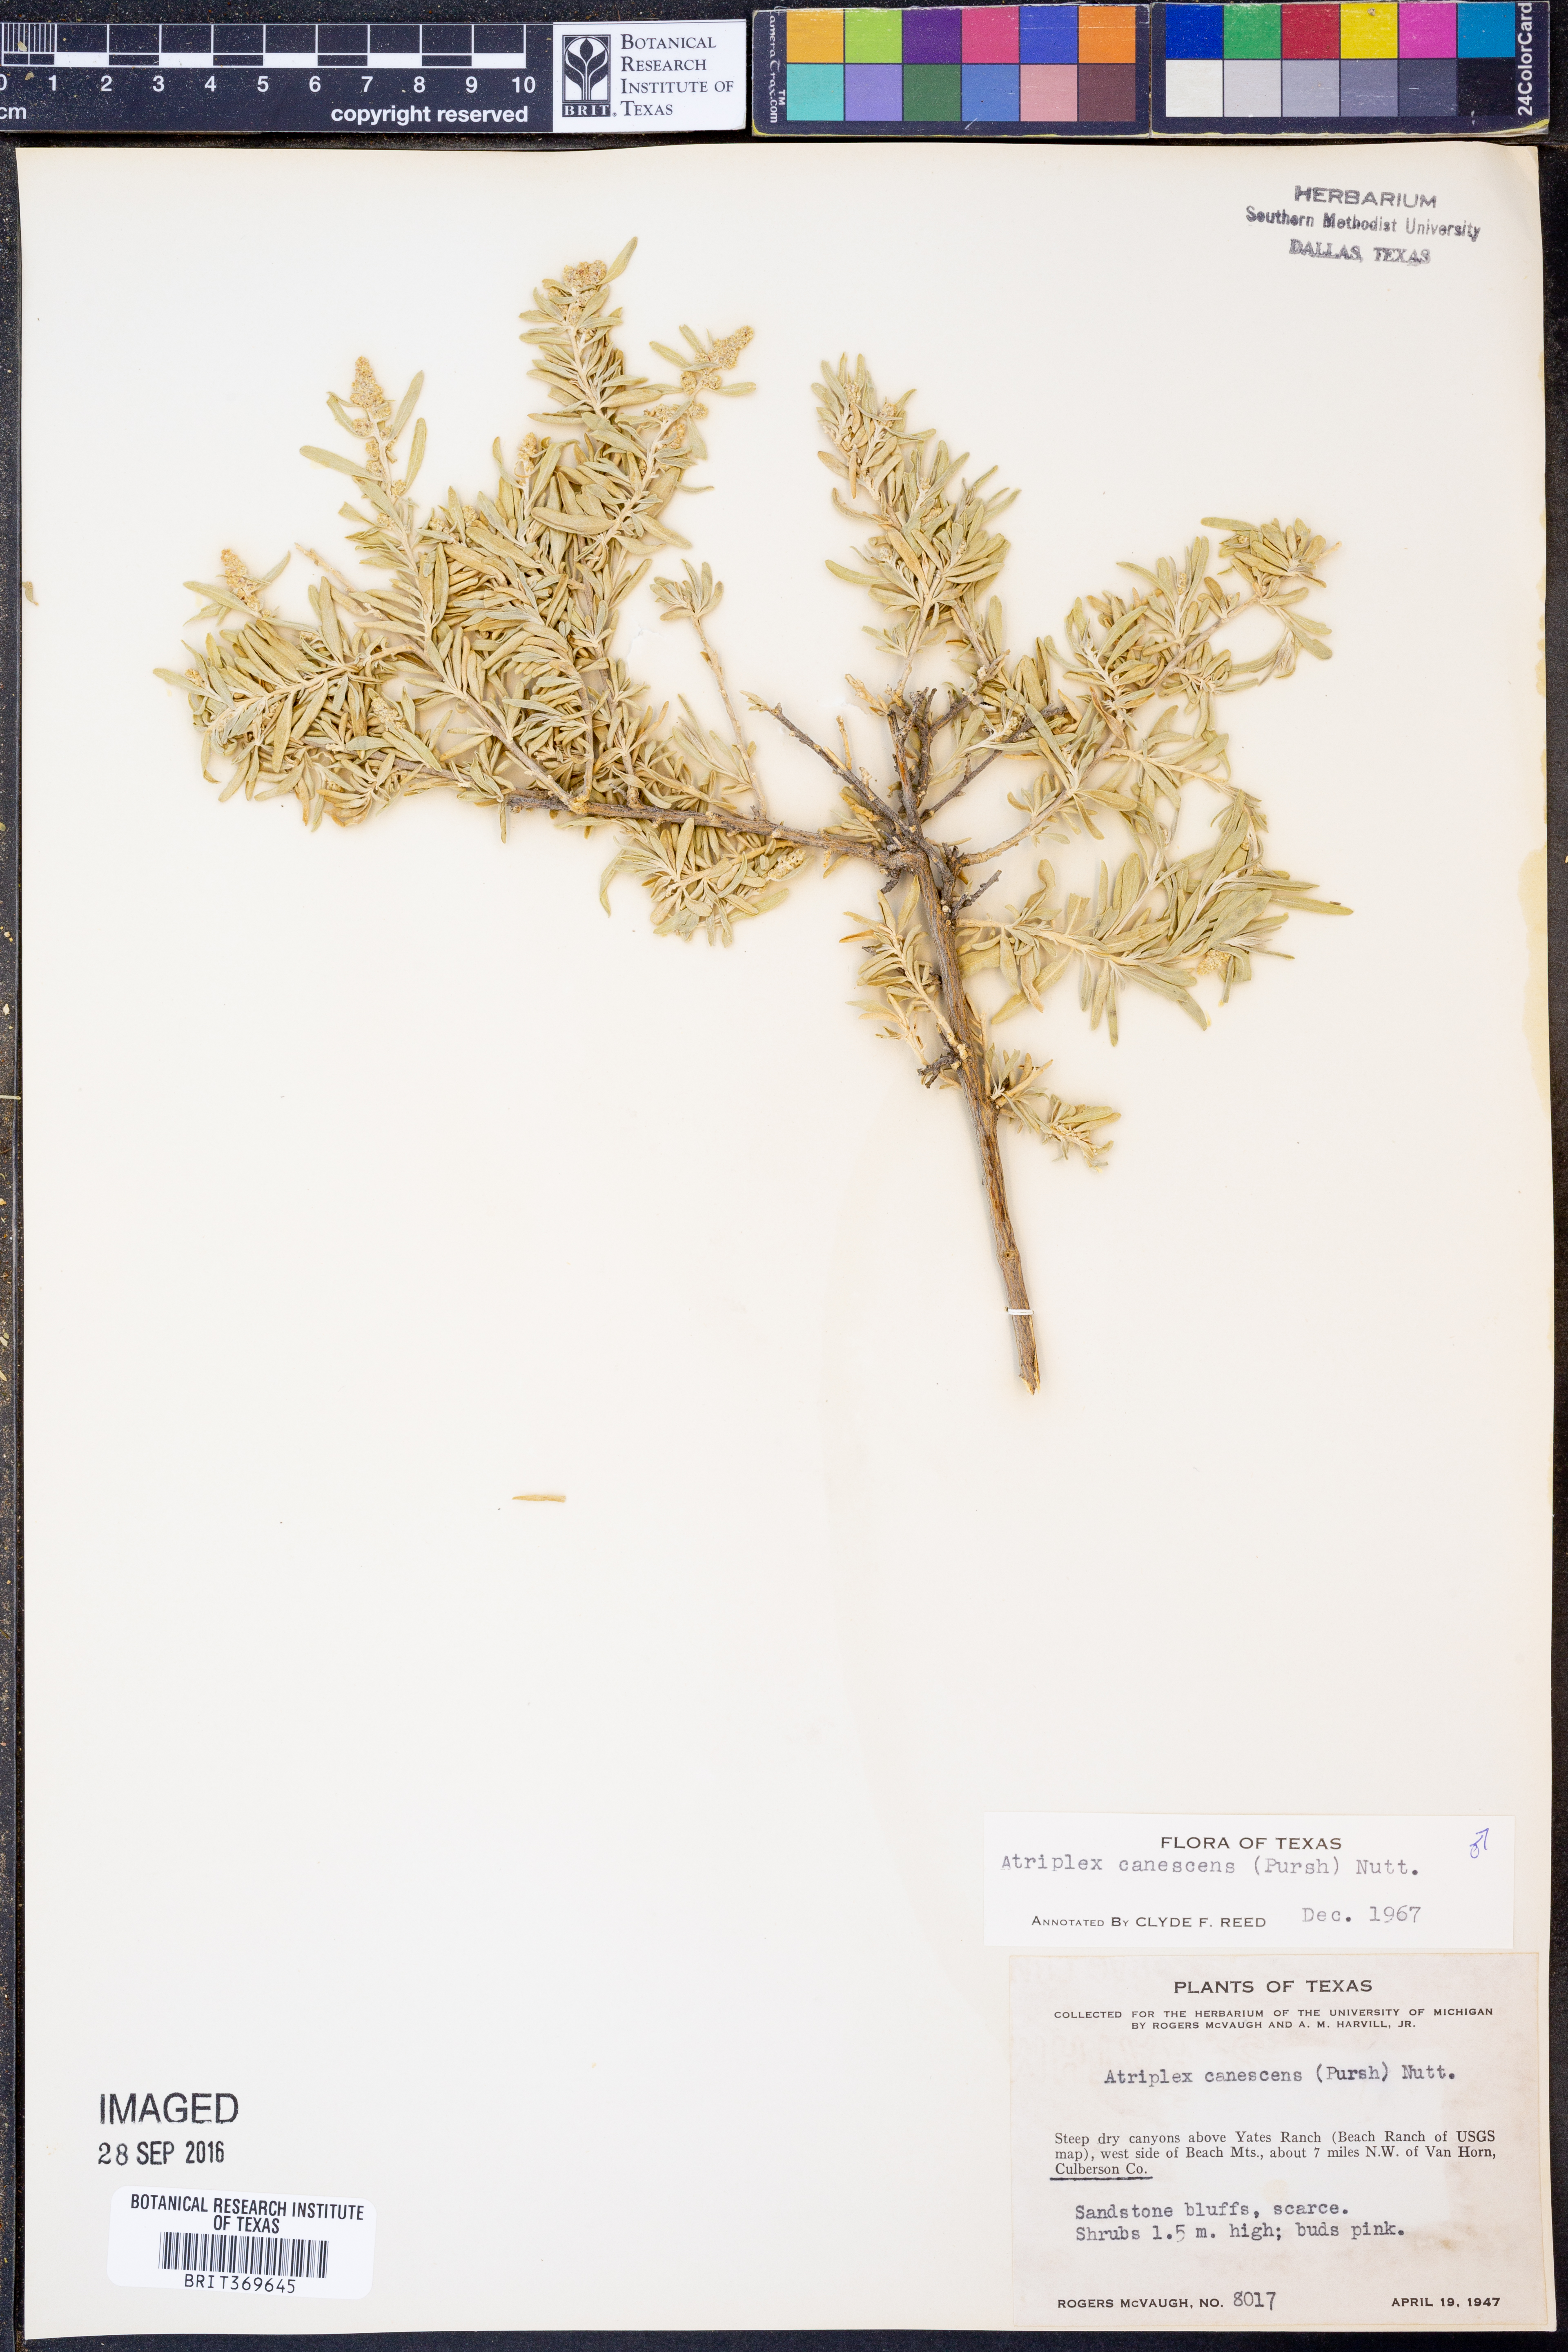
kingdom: Plantae
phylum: Tracheophyta
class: Magnoliopsida
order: Caryophyllales
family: Amaranthaceae
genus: Atriplex
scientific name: Atriplex canescens
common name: Four-wing saltbush
